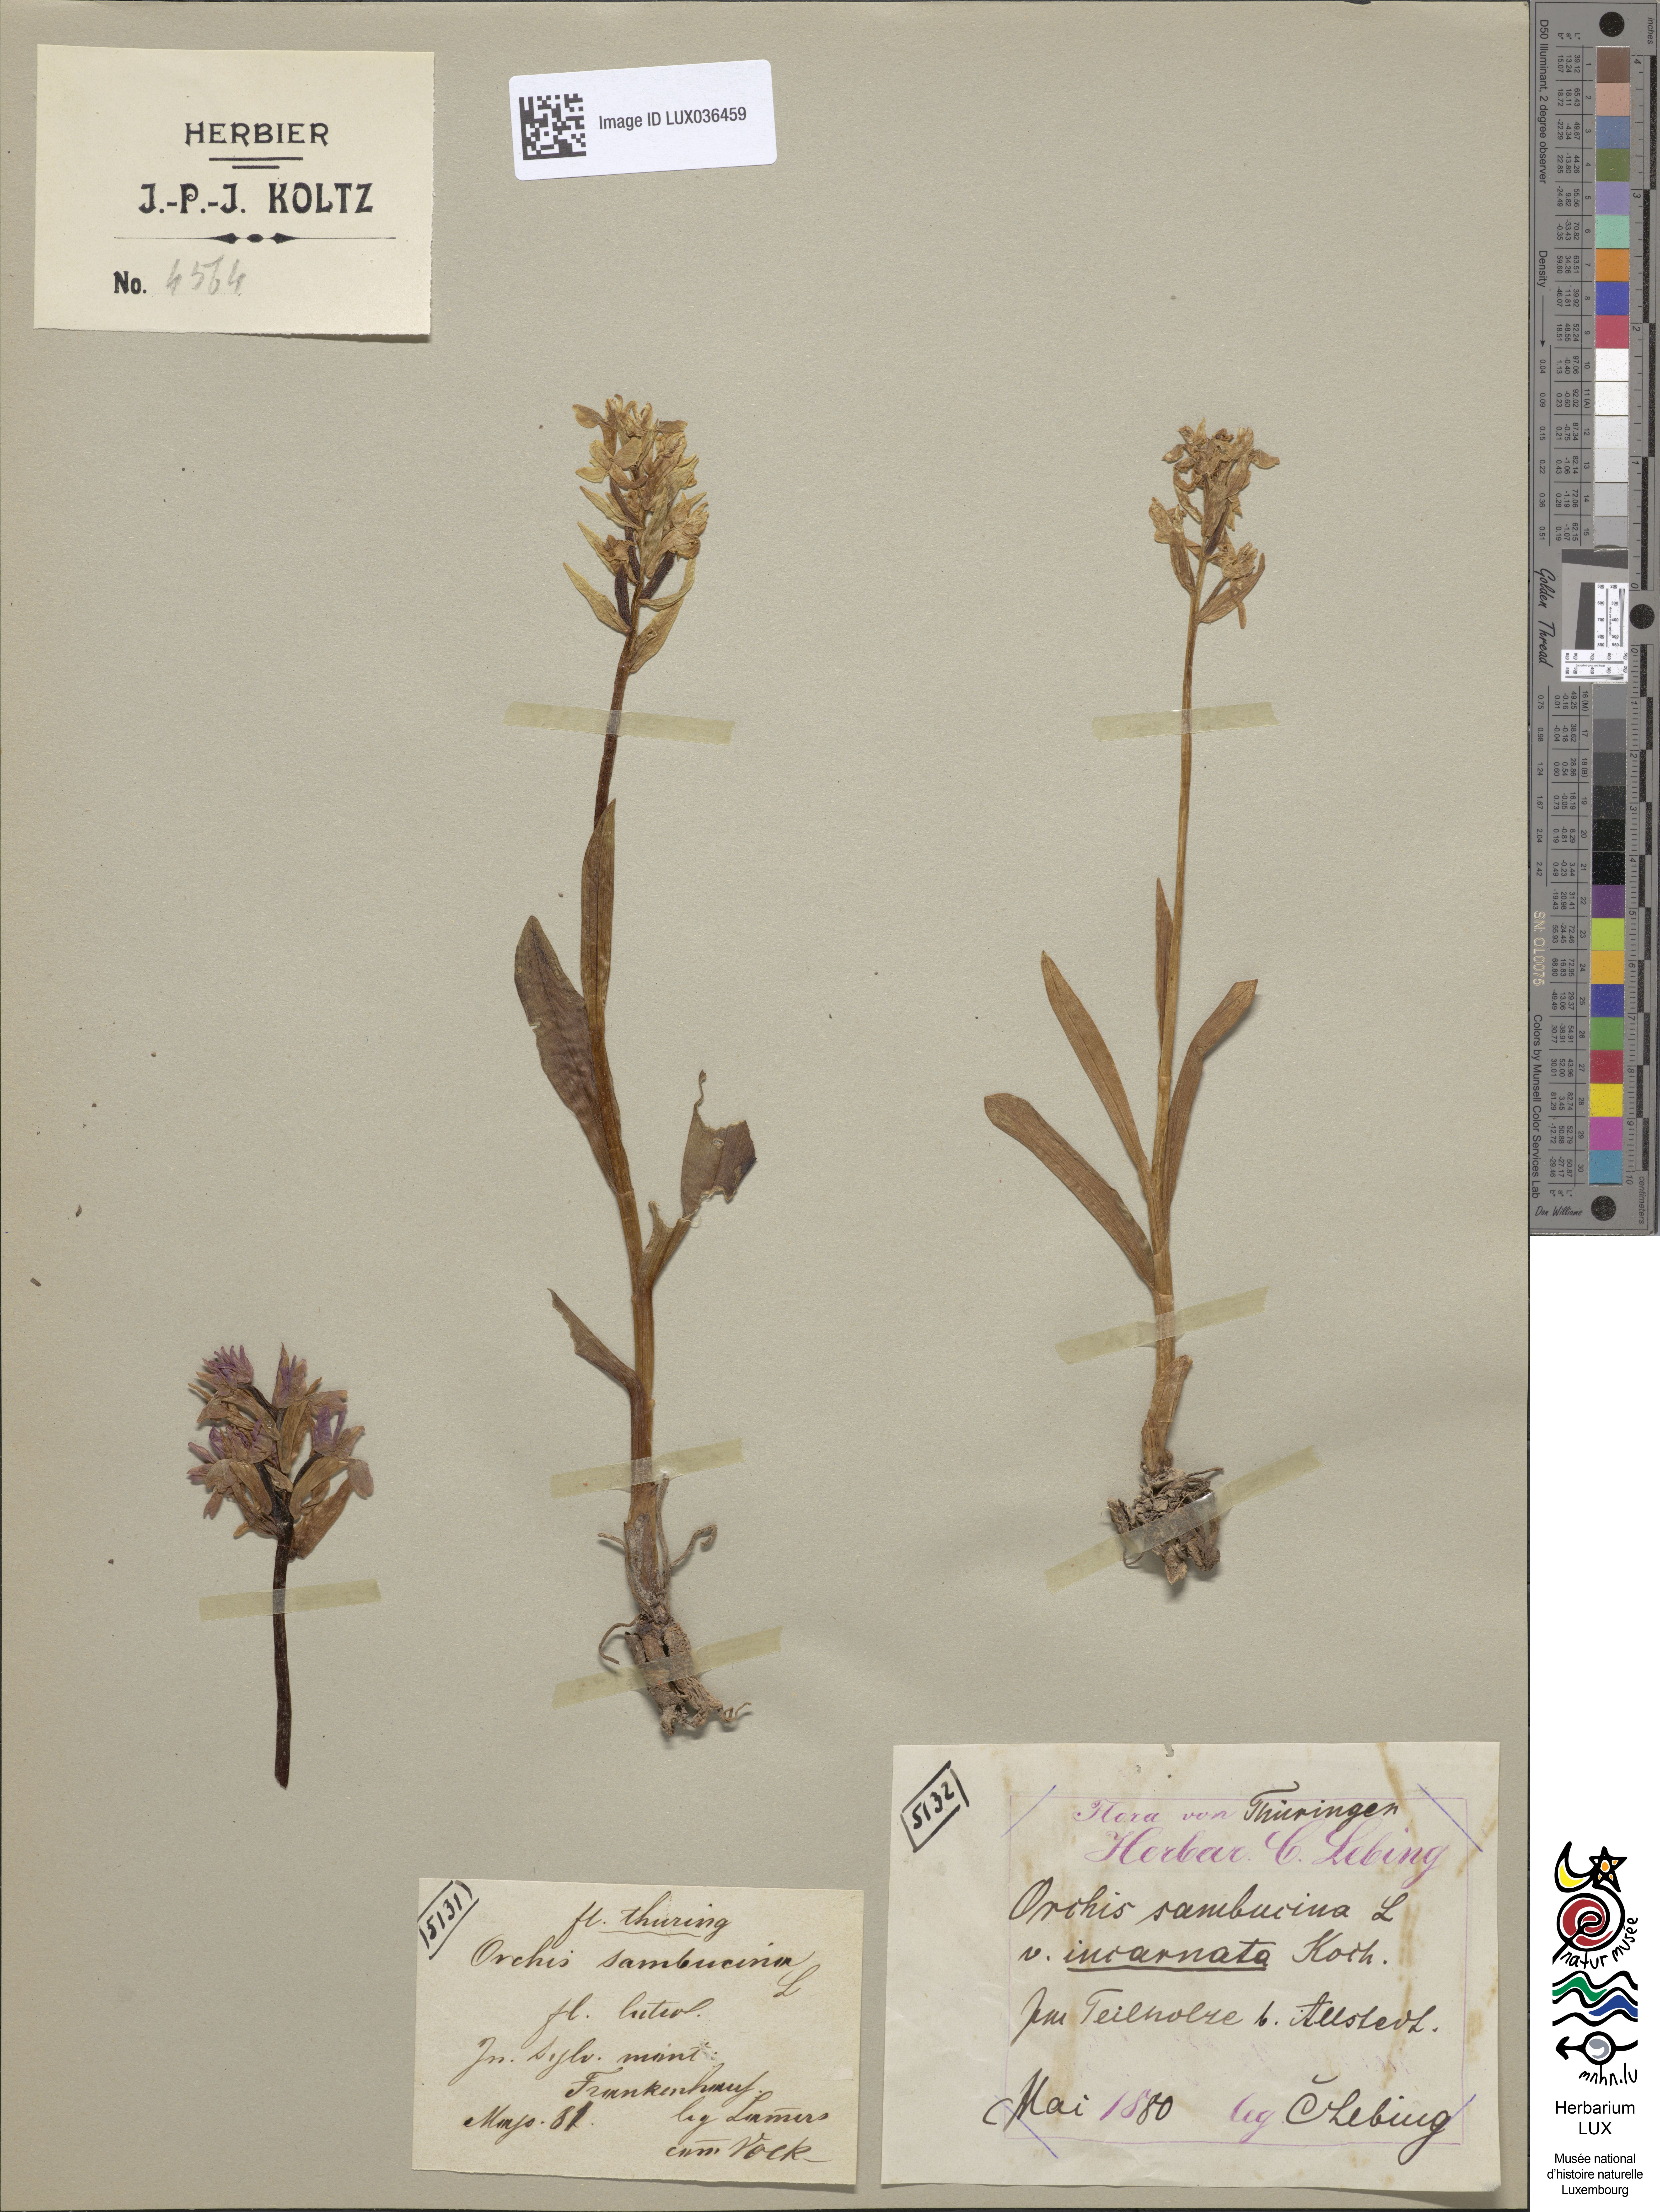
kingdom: Plantae
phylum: Tracheophyta
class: Liliopsida
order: Asparagales
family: Orchidaceae
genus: Dactylorhiza
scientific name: Dactylorhiza sambucina
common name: Elder-flowered orchid
